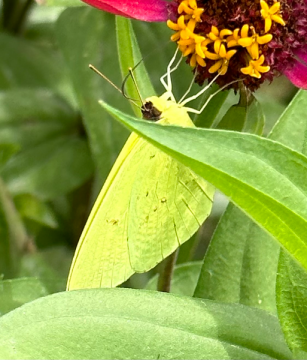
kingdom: Animalia
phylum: Arthropoda
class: Insecta
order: Lepidoptera
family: Pieridae
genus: Phoebis
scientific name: Phoebis sennae
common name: Cloudless Sulphur
